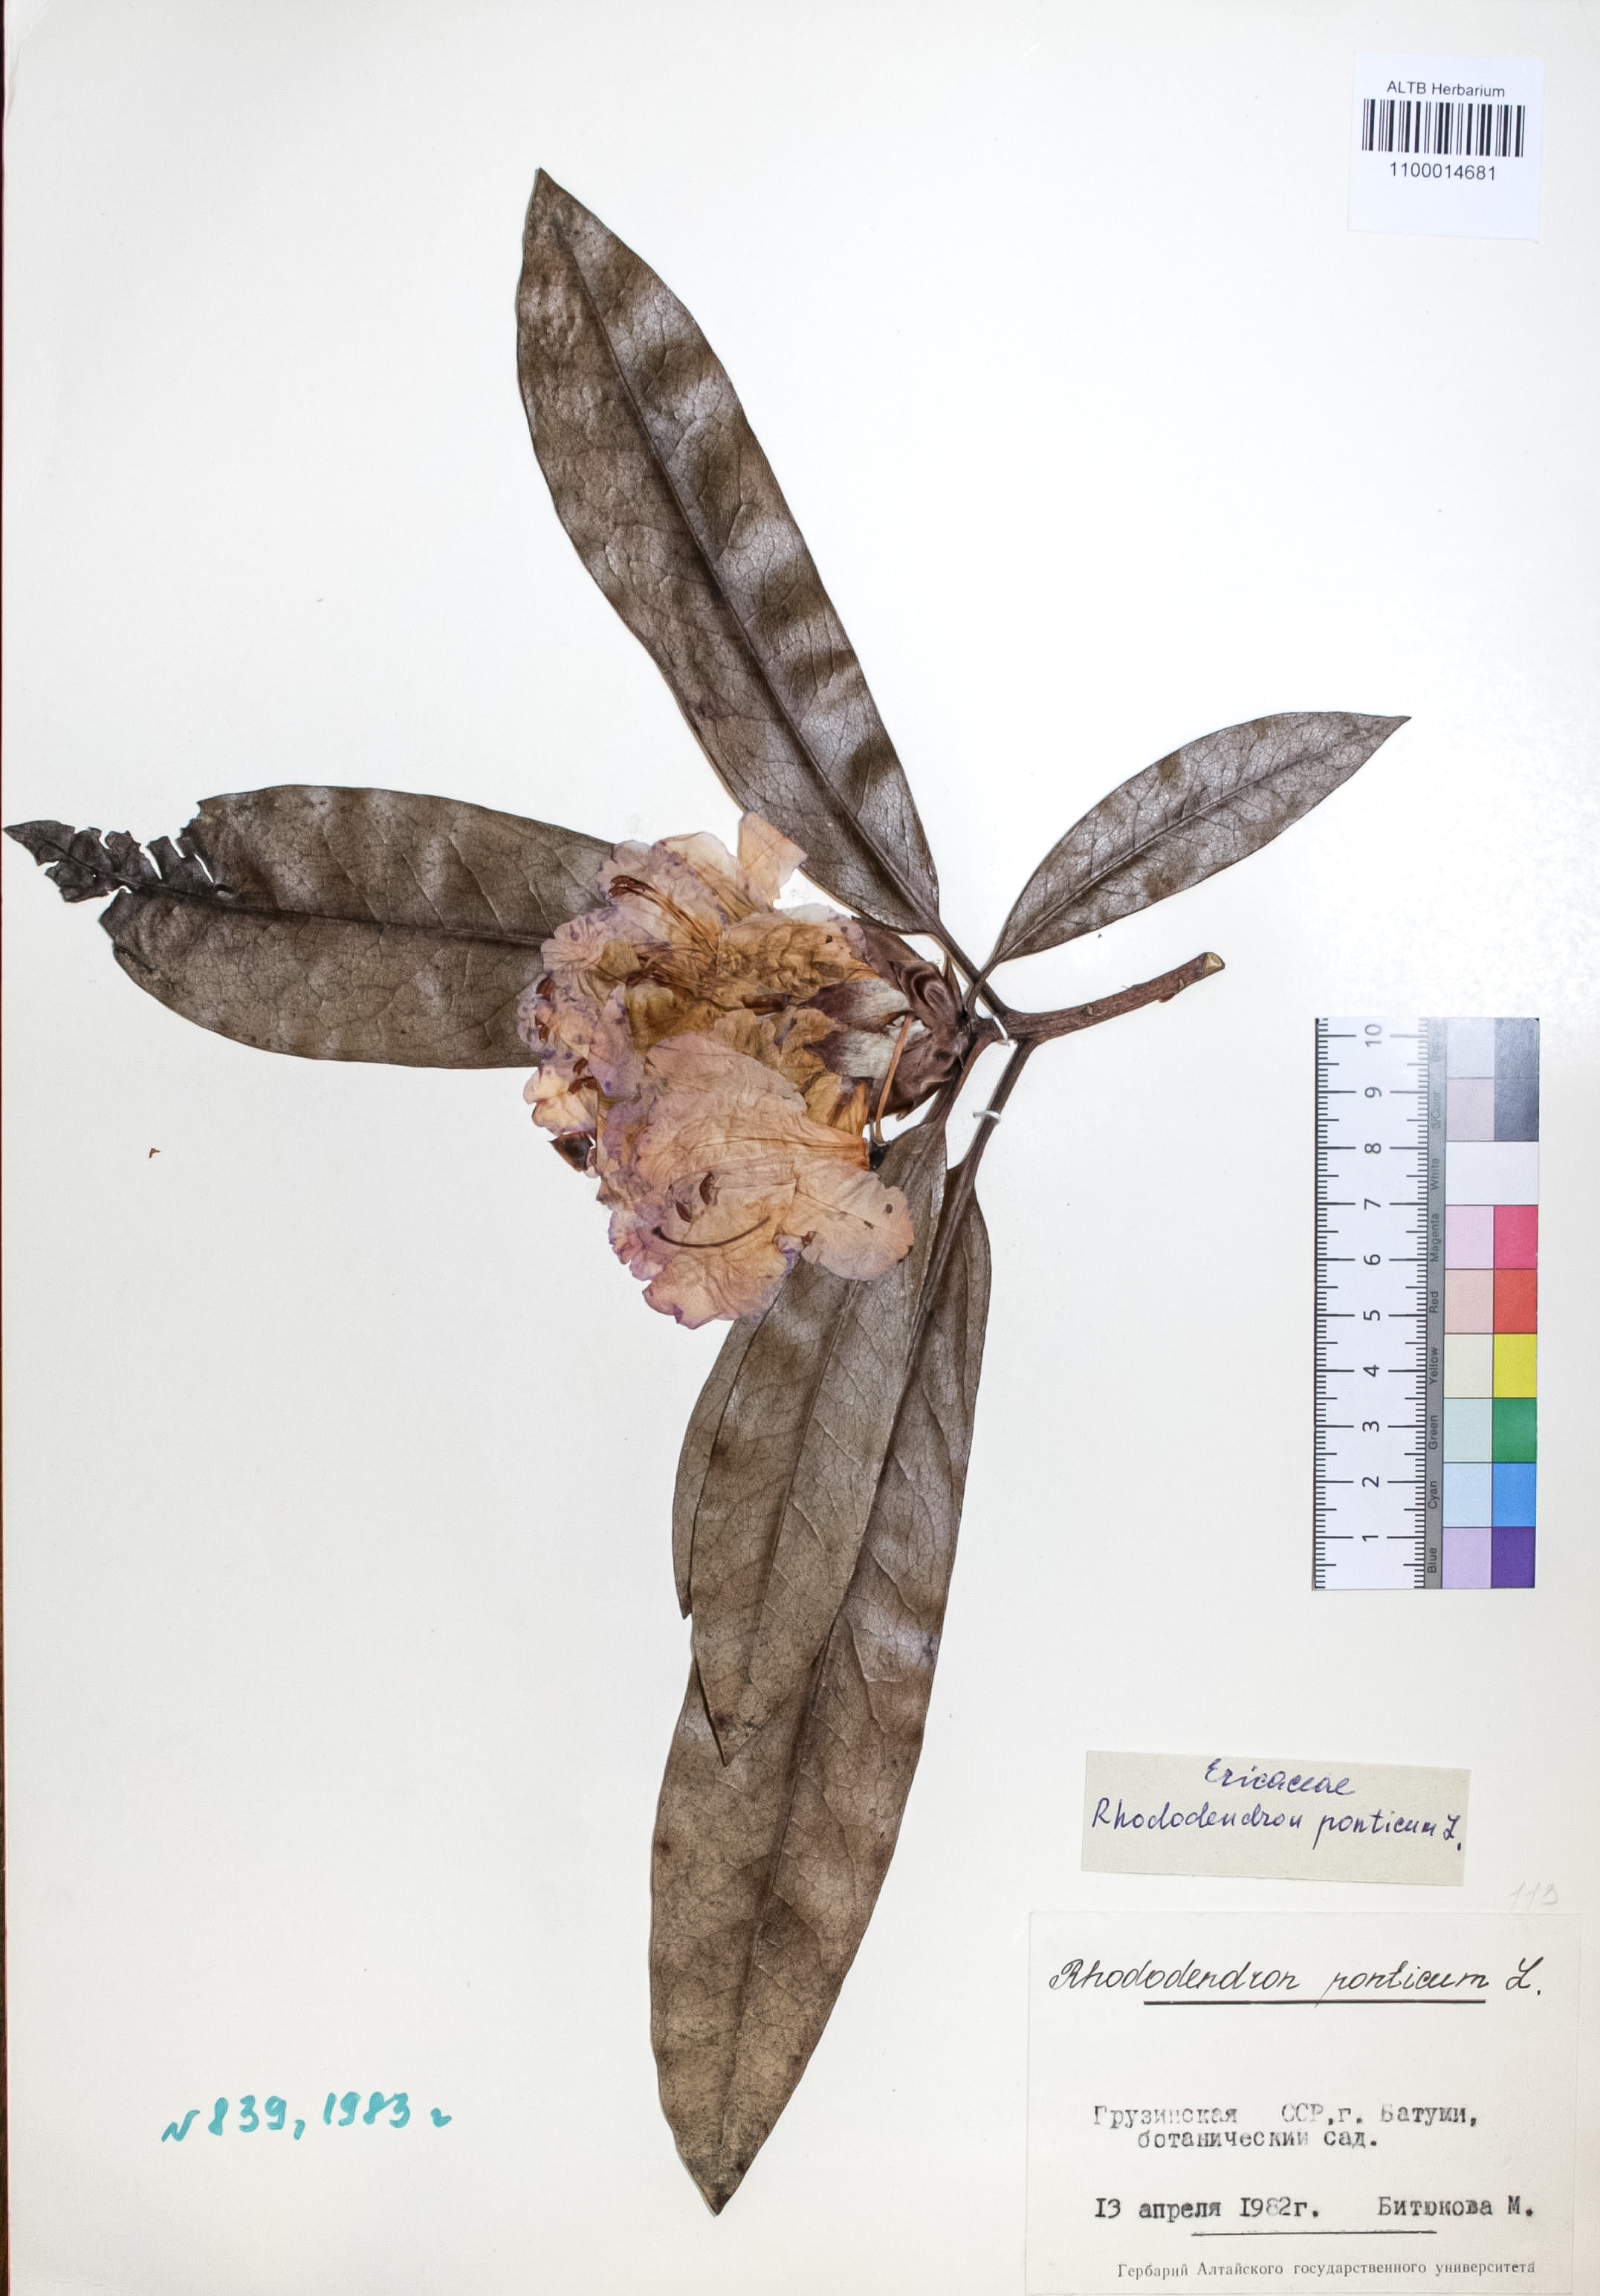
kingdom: Plantae
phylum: Tracheophyta
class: Magnoliopsida
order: Ericales
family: Ericaceae
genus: Rhododendron
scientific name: Rhododendron ponticum
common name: Rhododendron
